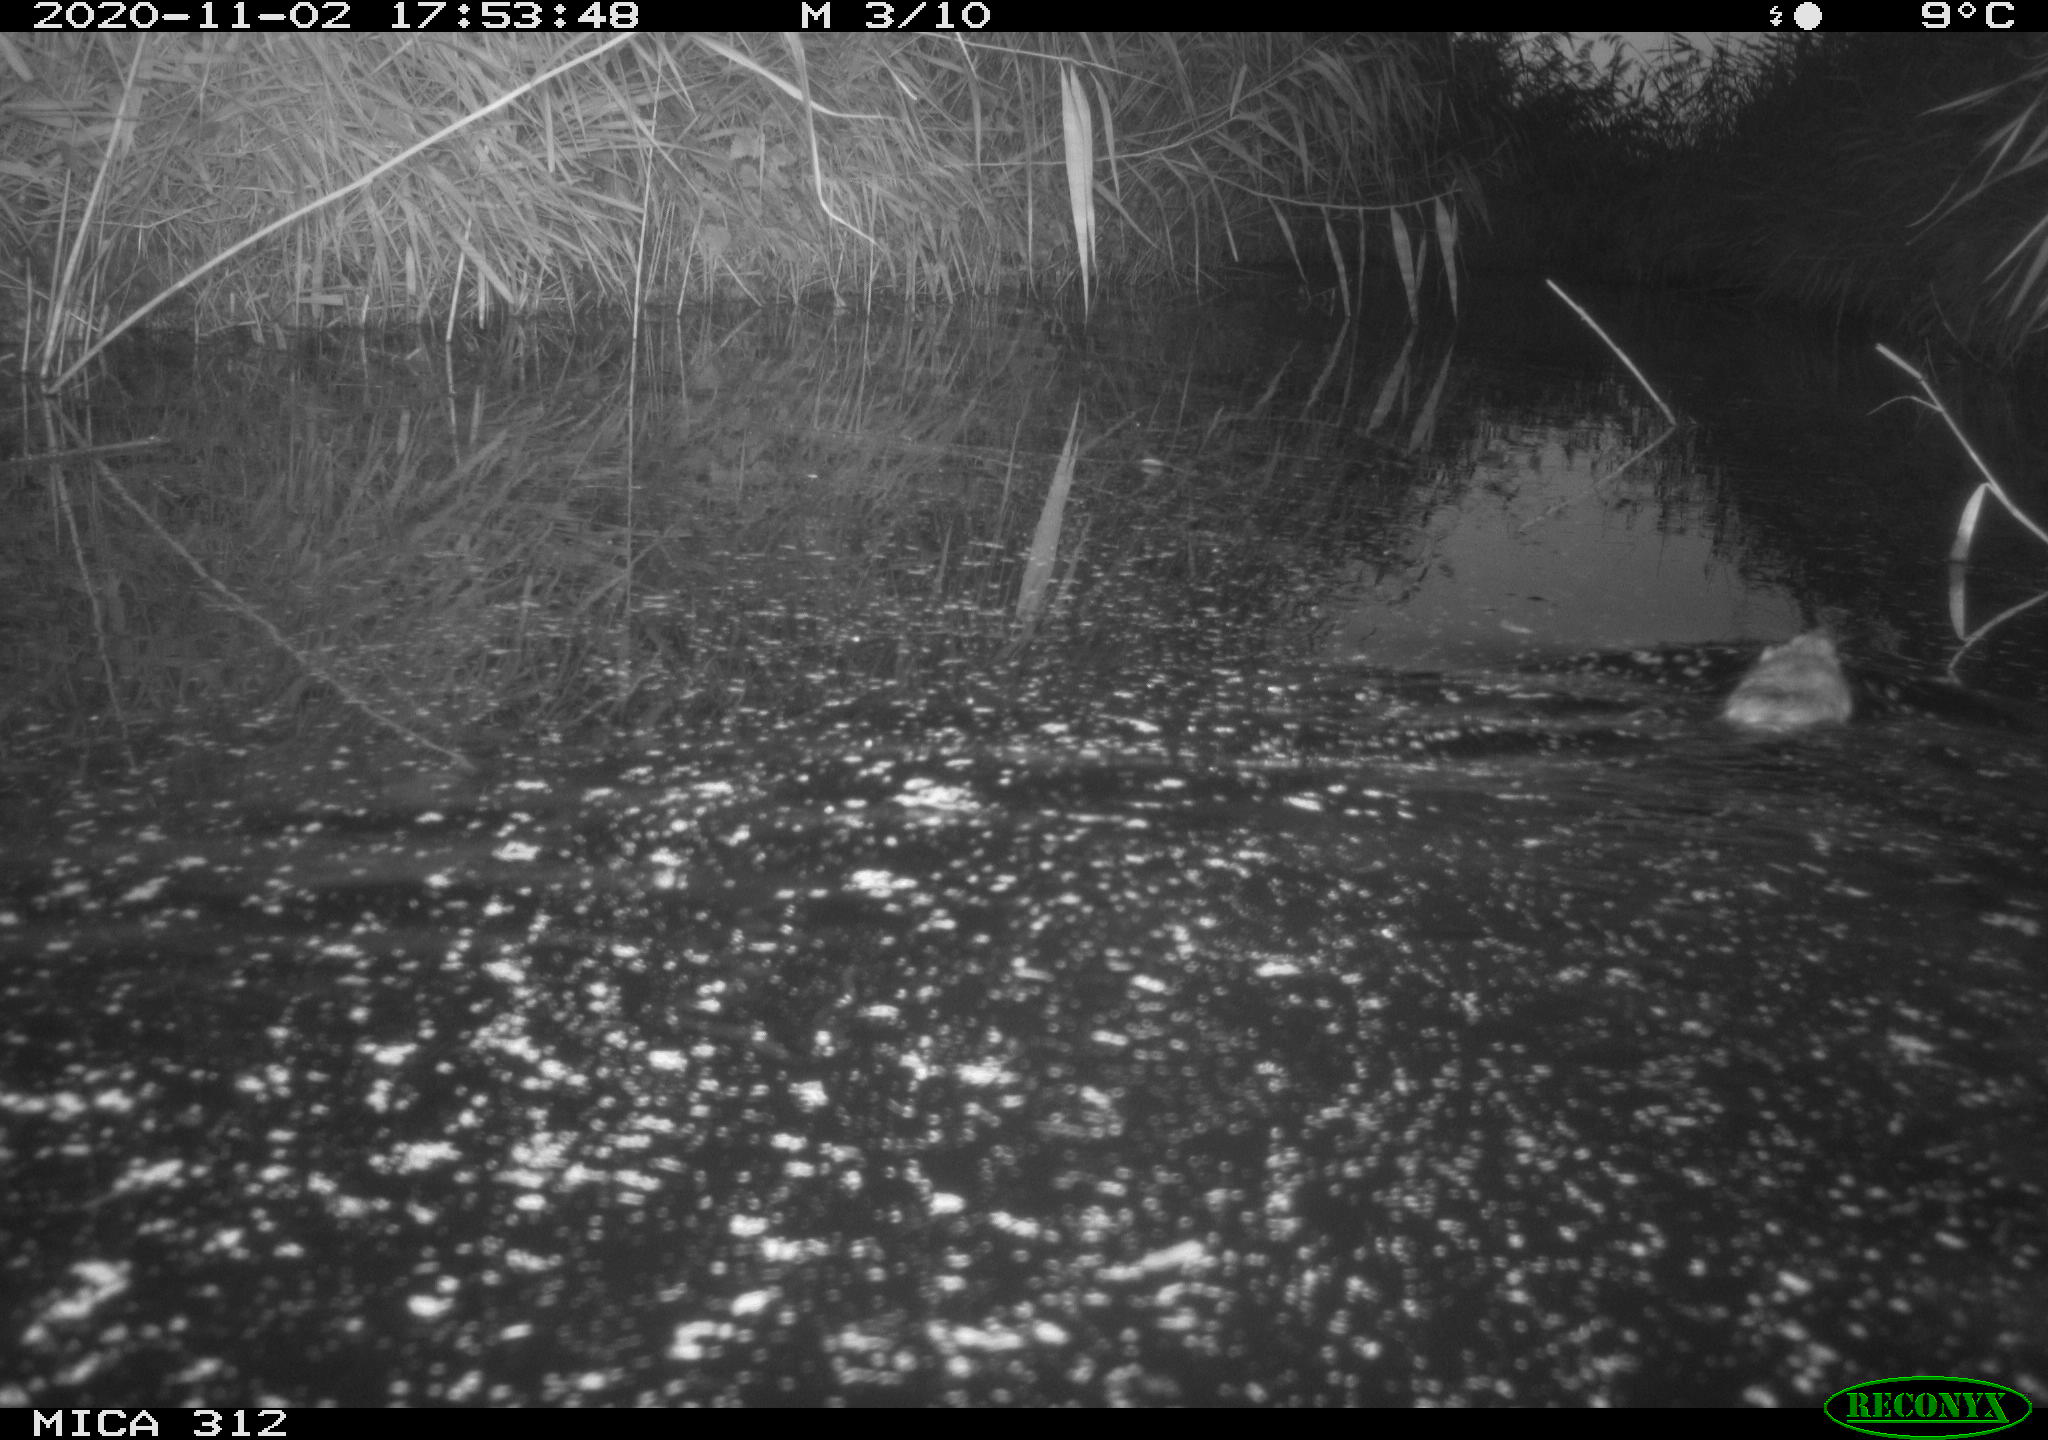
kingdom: Animalia
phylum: Chordata
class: Mammalia
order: Rodentia
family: Cricetidae
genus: Ondatra
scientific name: Ondatra zibethicus
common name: Muskrat
